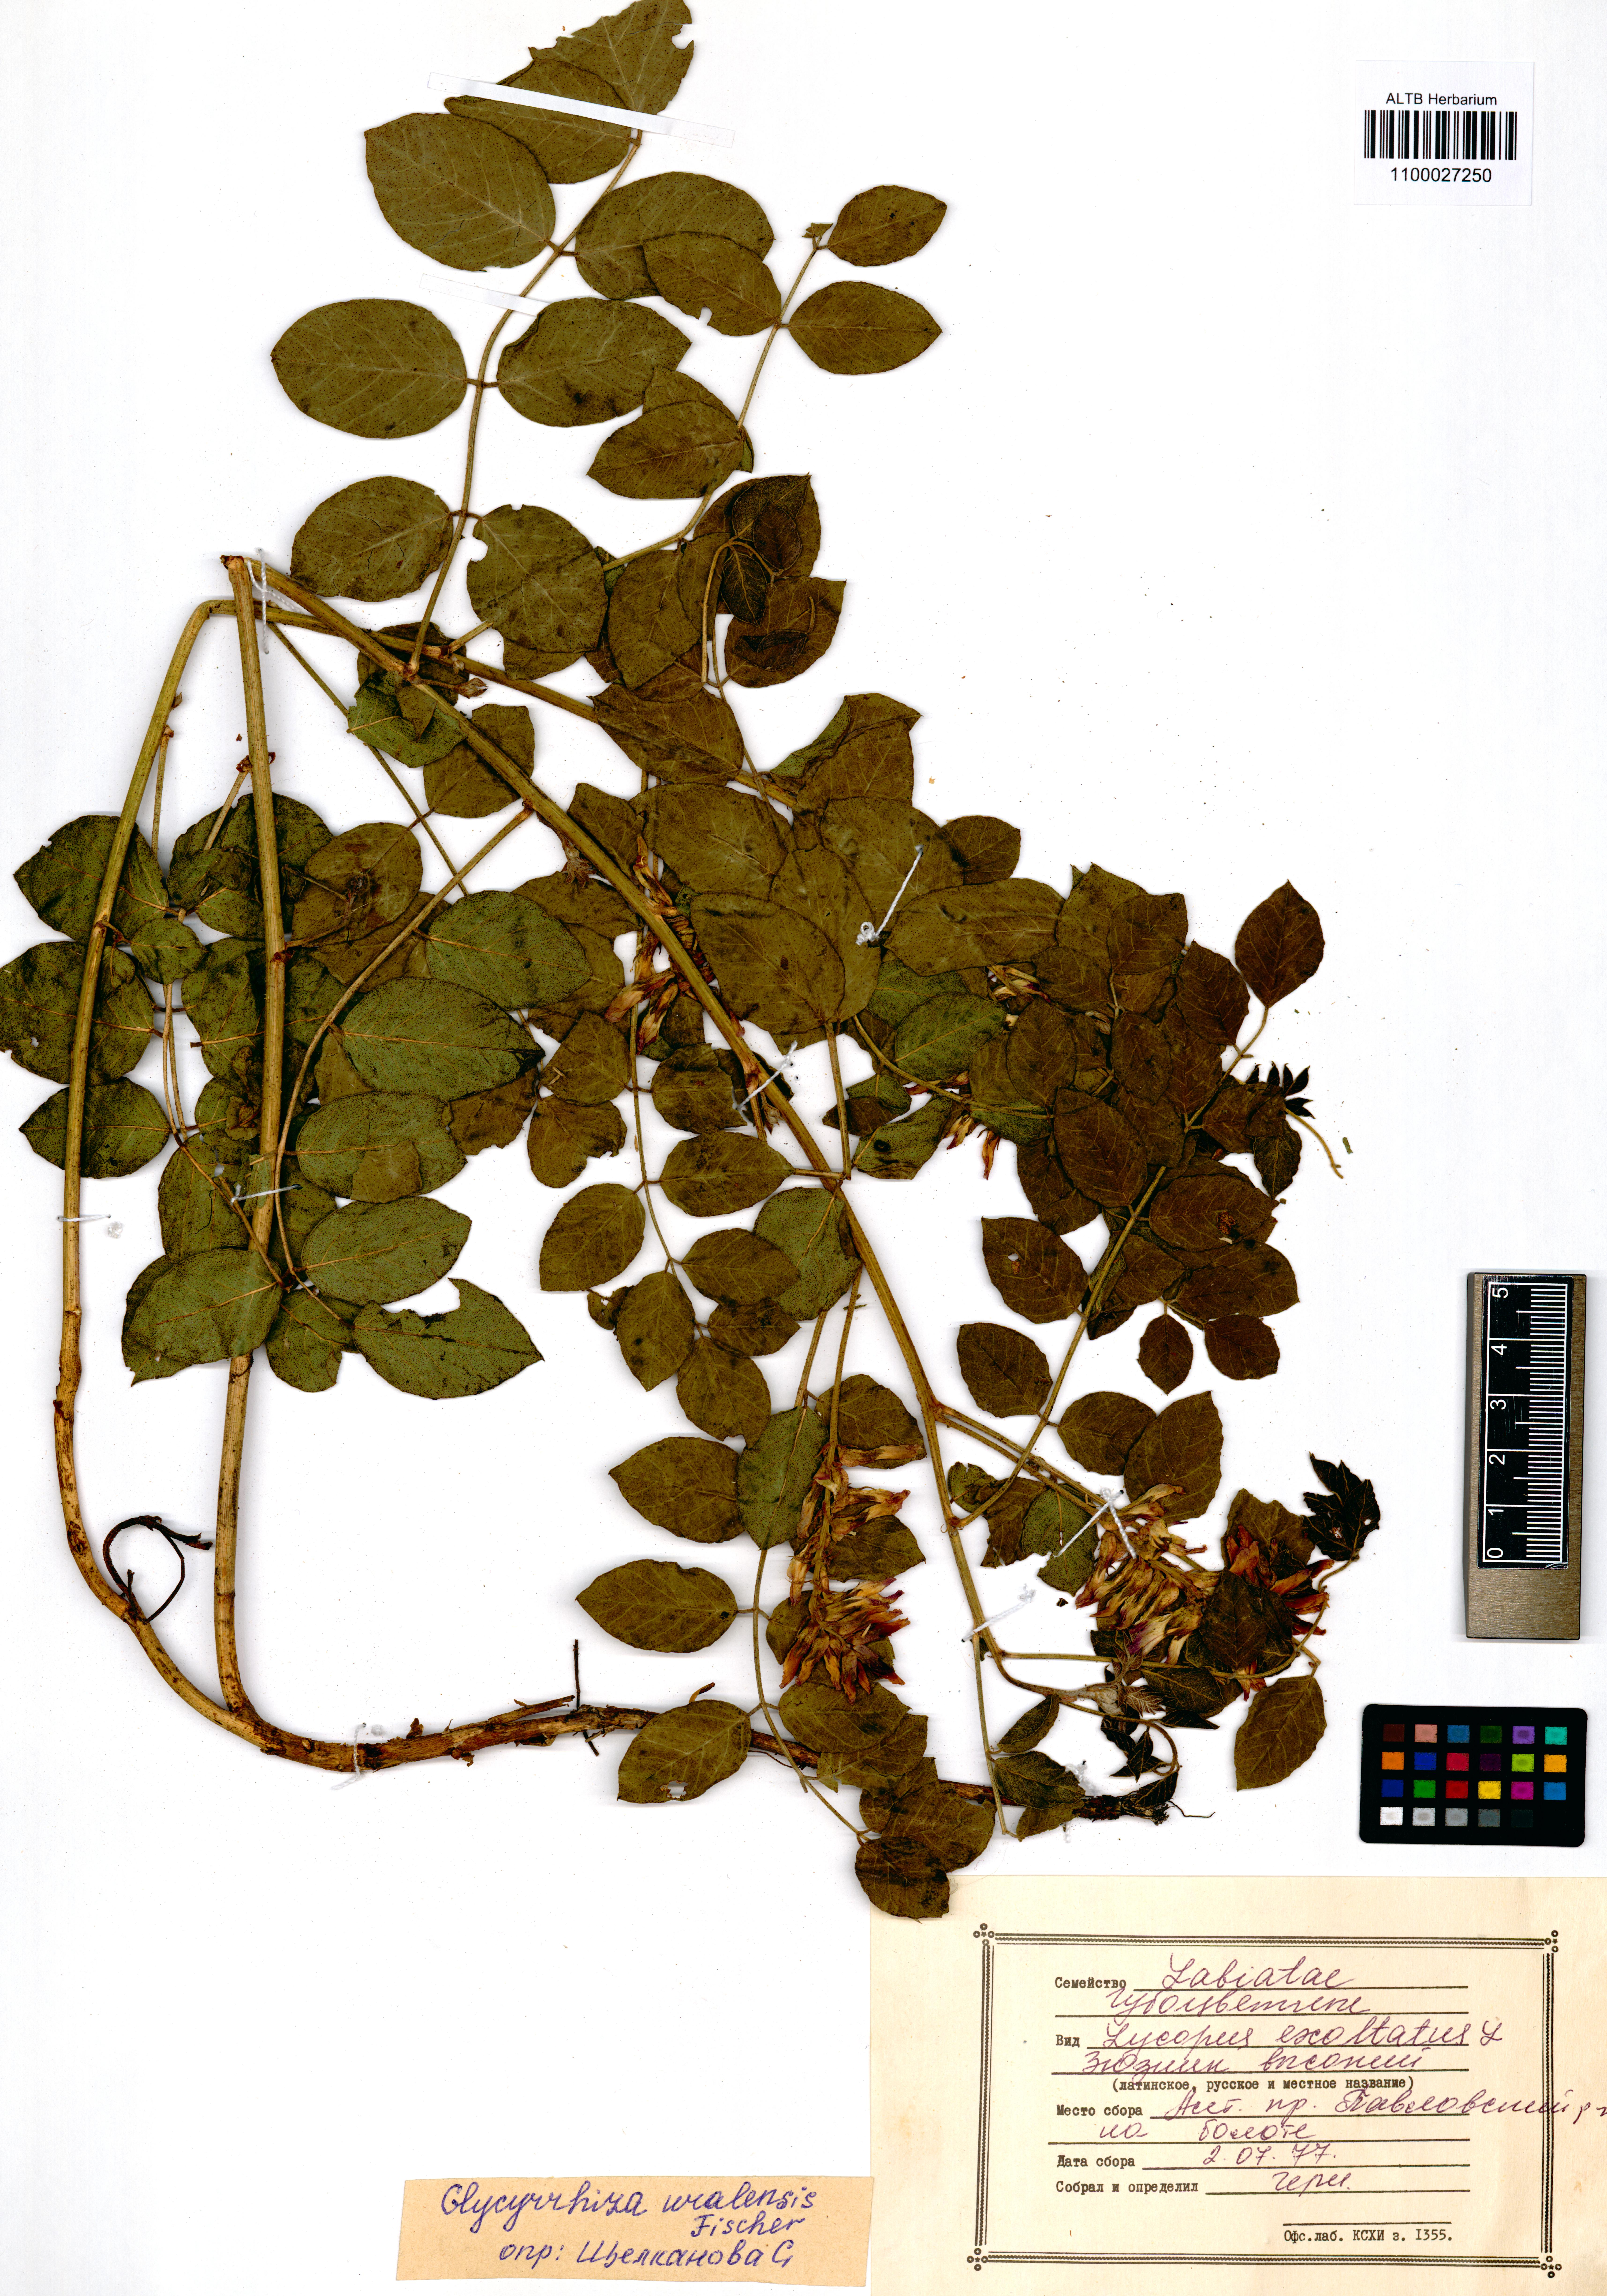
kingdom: Plantae
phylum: Tracheophyta
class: Magnoliopsida
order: Fabales
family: Fabaceae
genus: Glycyrrhiza
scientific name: Glycyrrhiza uralensis
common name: Chinese licorice
